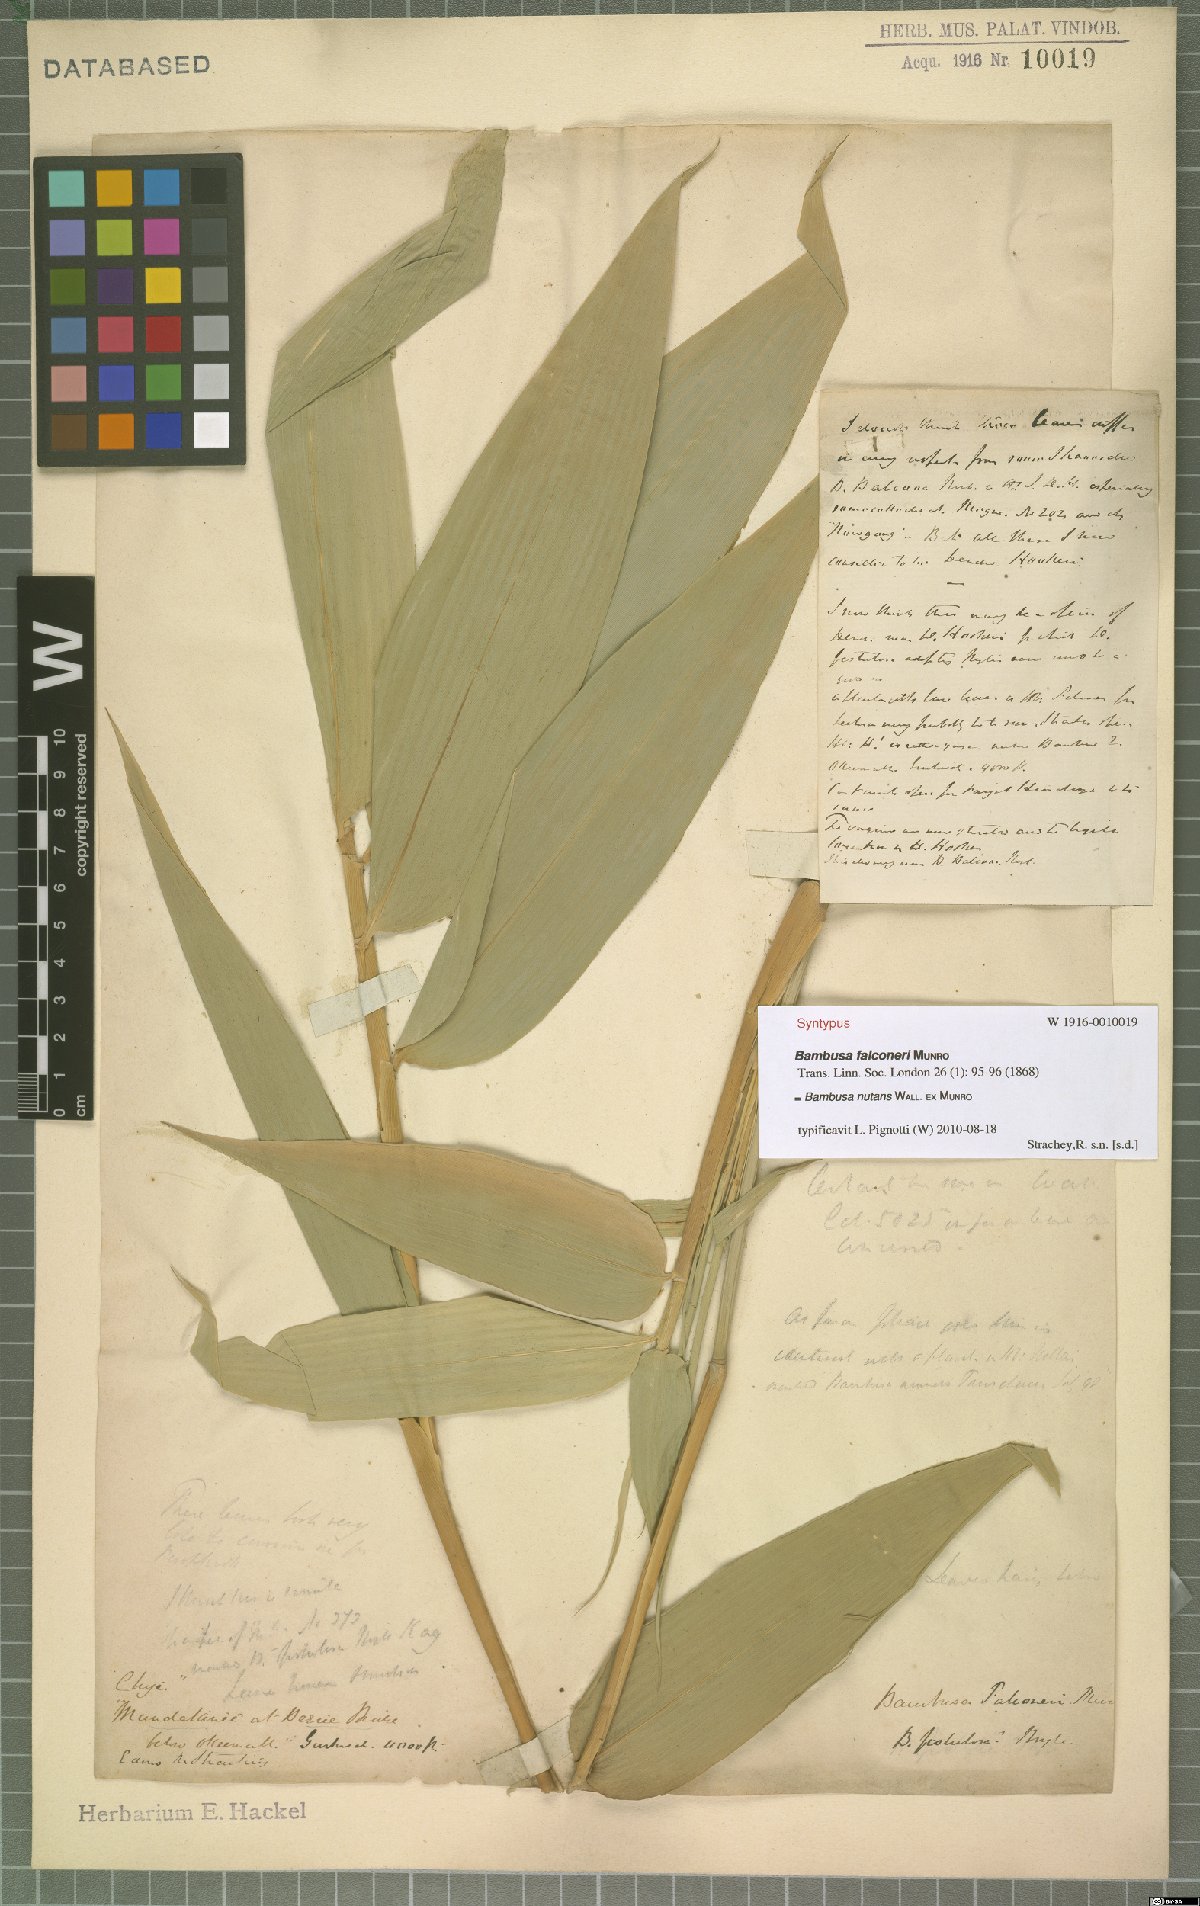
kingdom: Plantae
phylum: Tracheophyta
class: Liliopsida
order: Poales
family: Poaceae
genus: Bambusa
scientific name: Bambusa nutans
